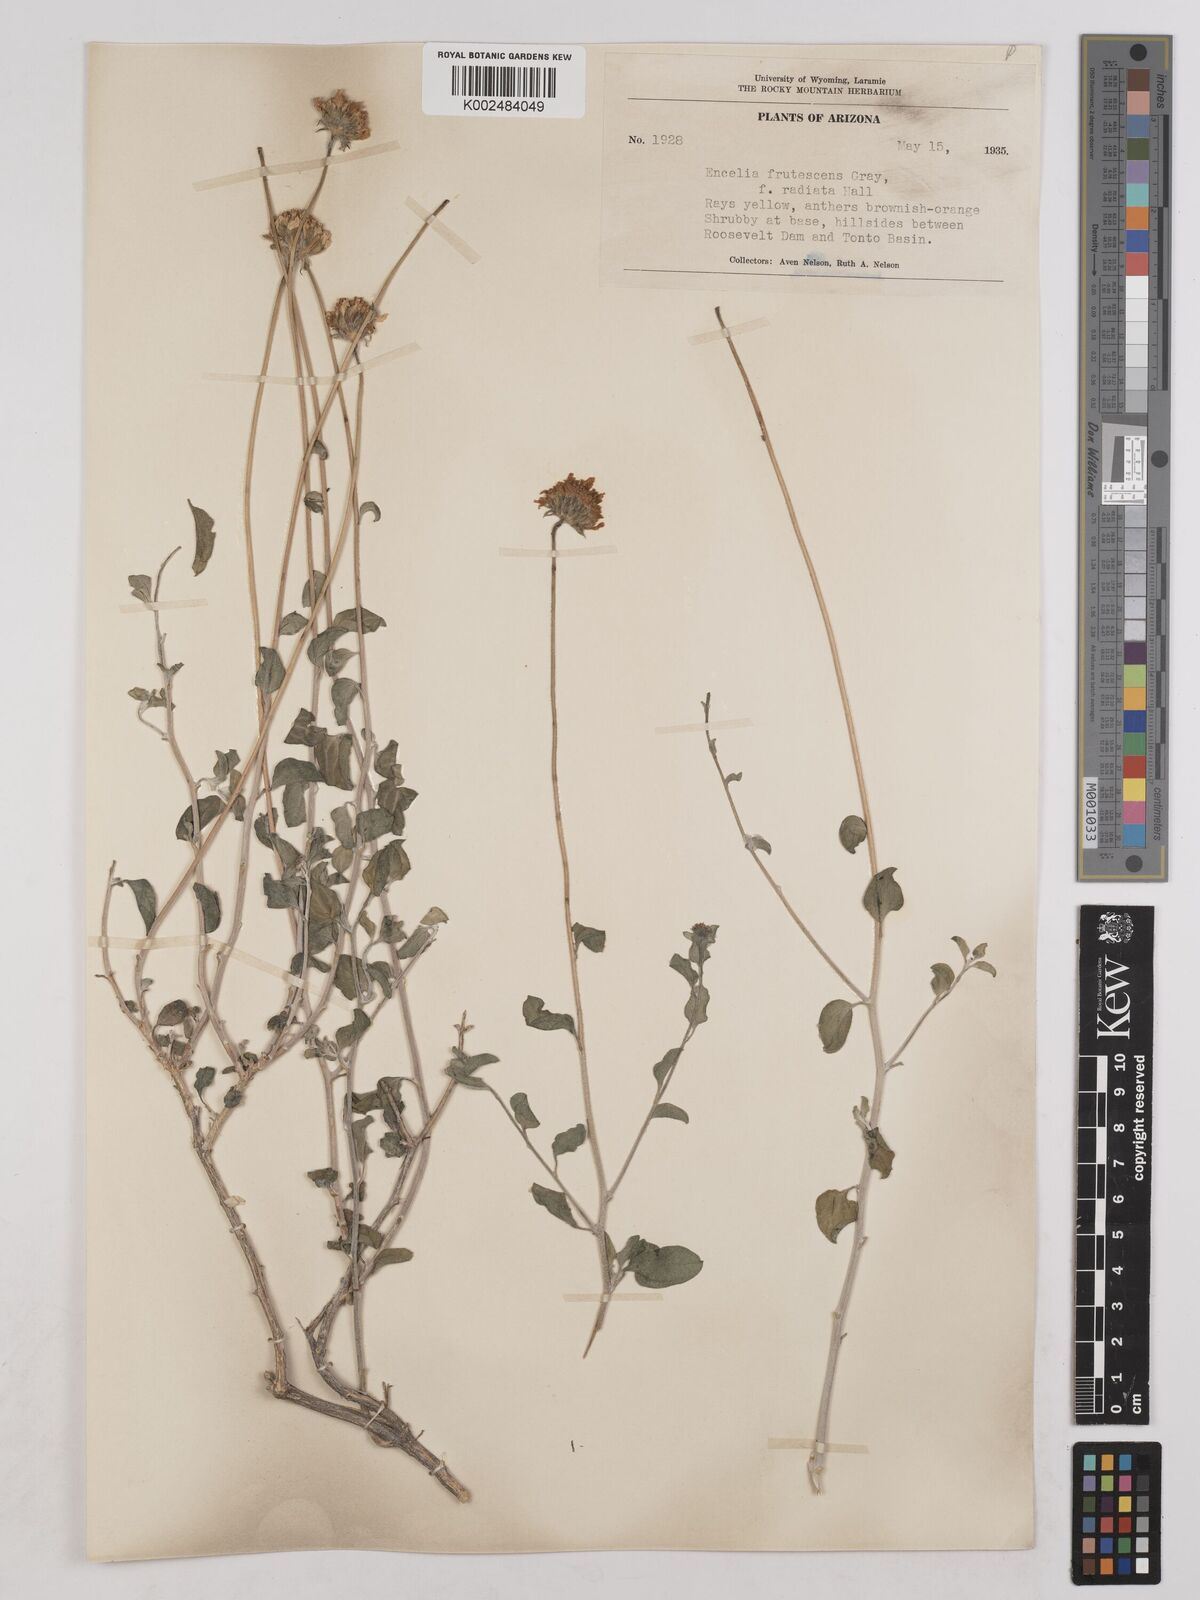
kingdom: Plantae
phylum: Tracheophyta
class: Magnoliopsida
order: Asterales
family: Asteraceae
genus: Encelia
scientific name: Encelia frutescens
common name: Bush encelia
